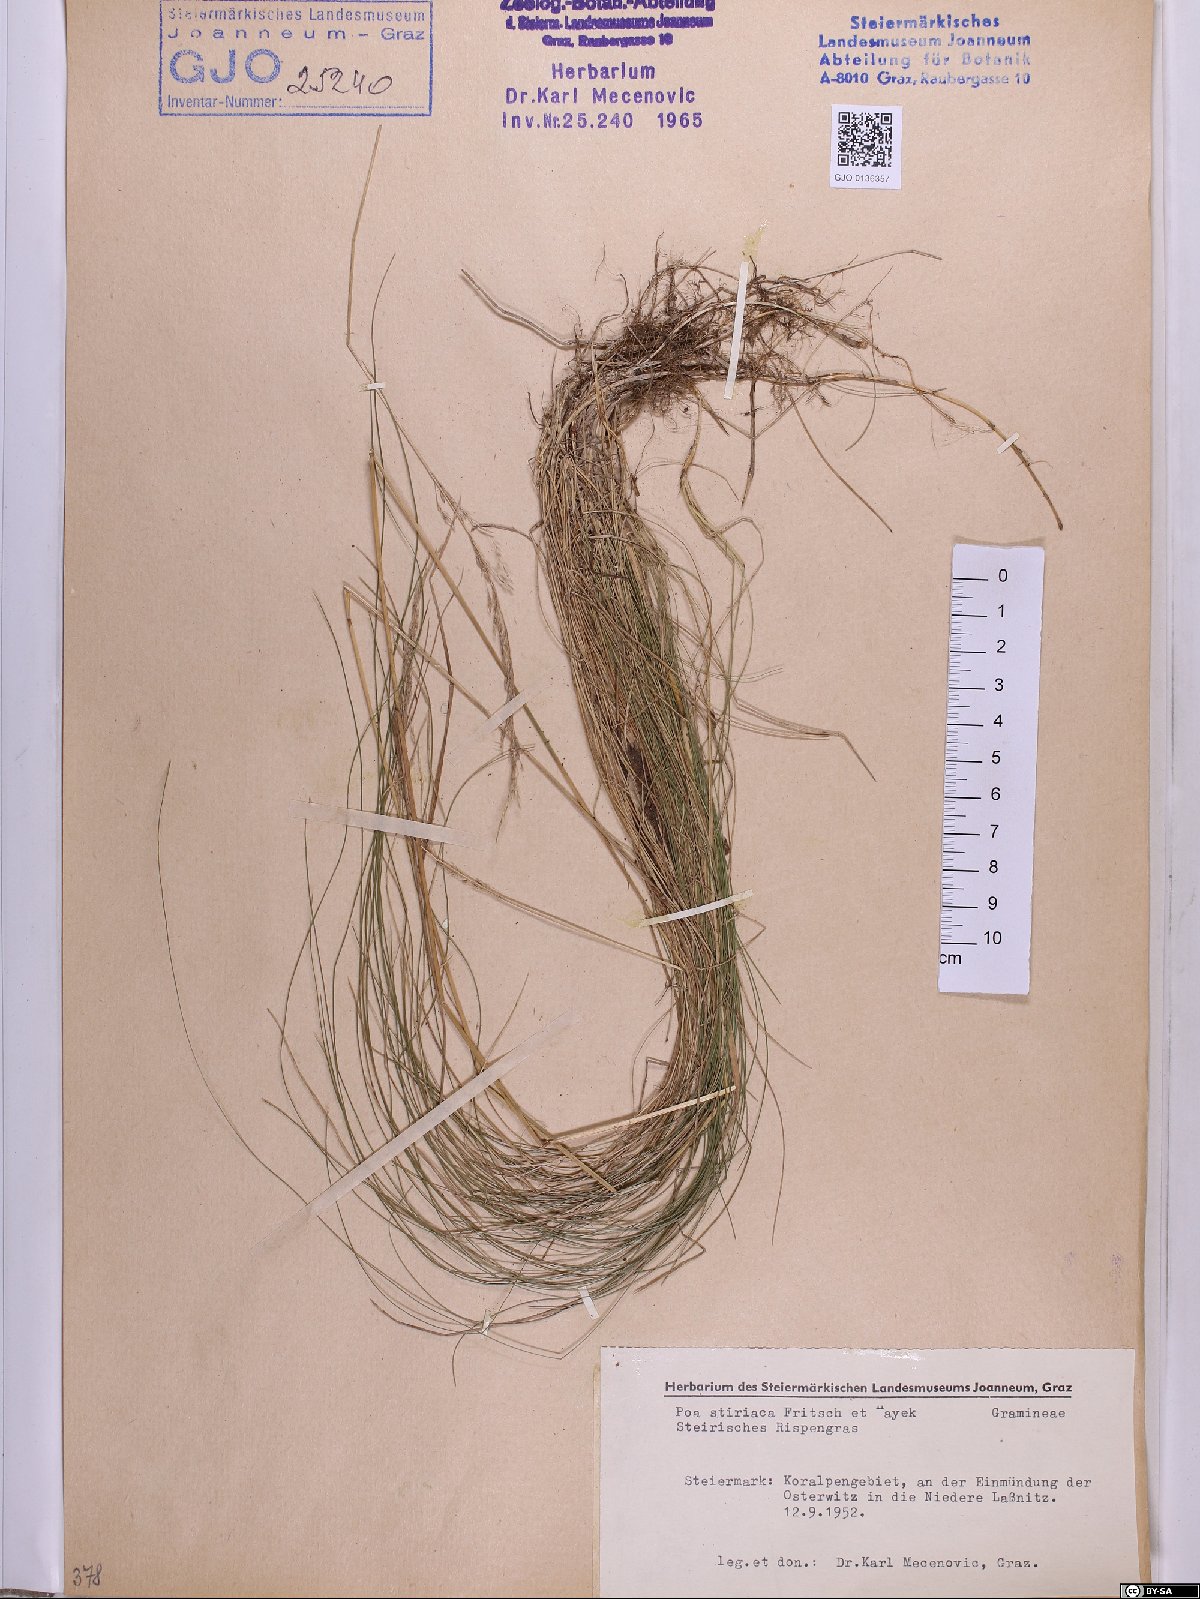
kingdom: Plantae
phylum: Tracheophyta
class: Liliopsida
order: Poales
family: Poaceae
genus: Poa
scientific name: Poa stiriaca
